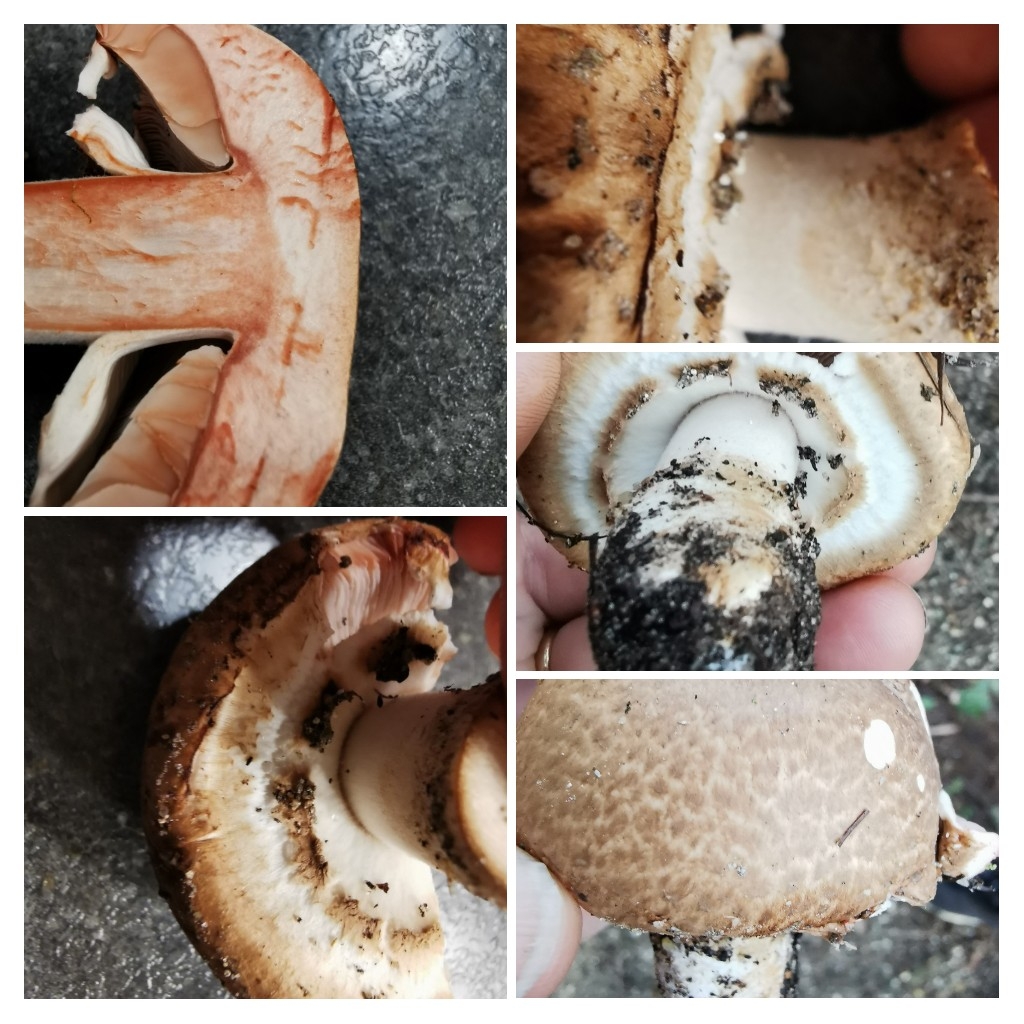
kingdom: Fungi
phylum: Basidiomycota
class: Agaricomycetes
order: Agaricales
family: Agaricaceae
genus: Agaricus
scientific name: Agaricus
